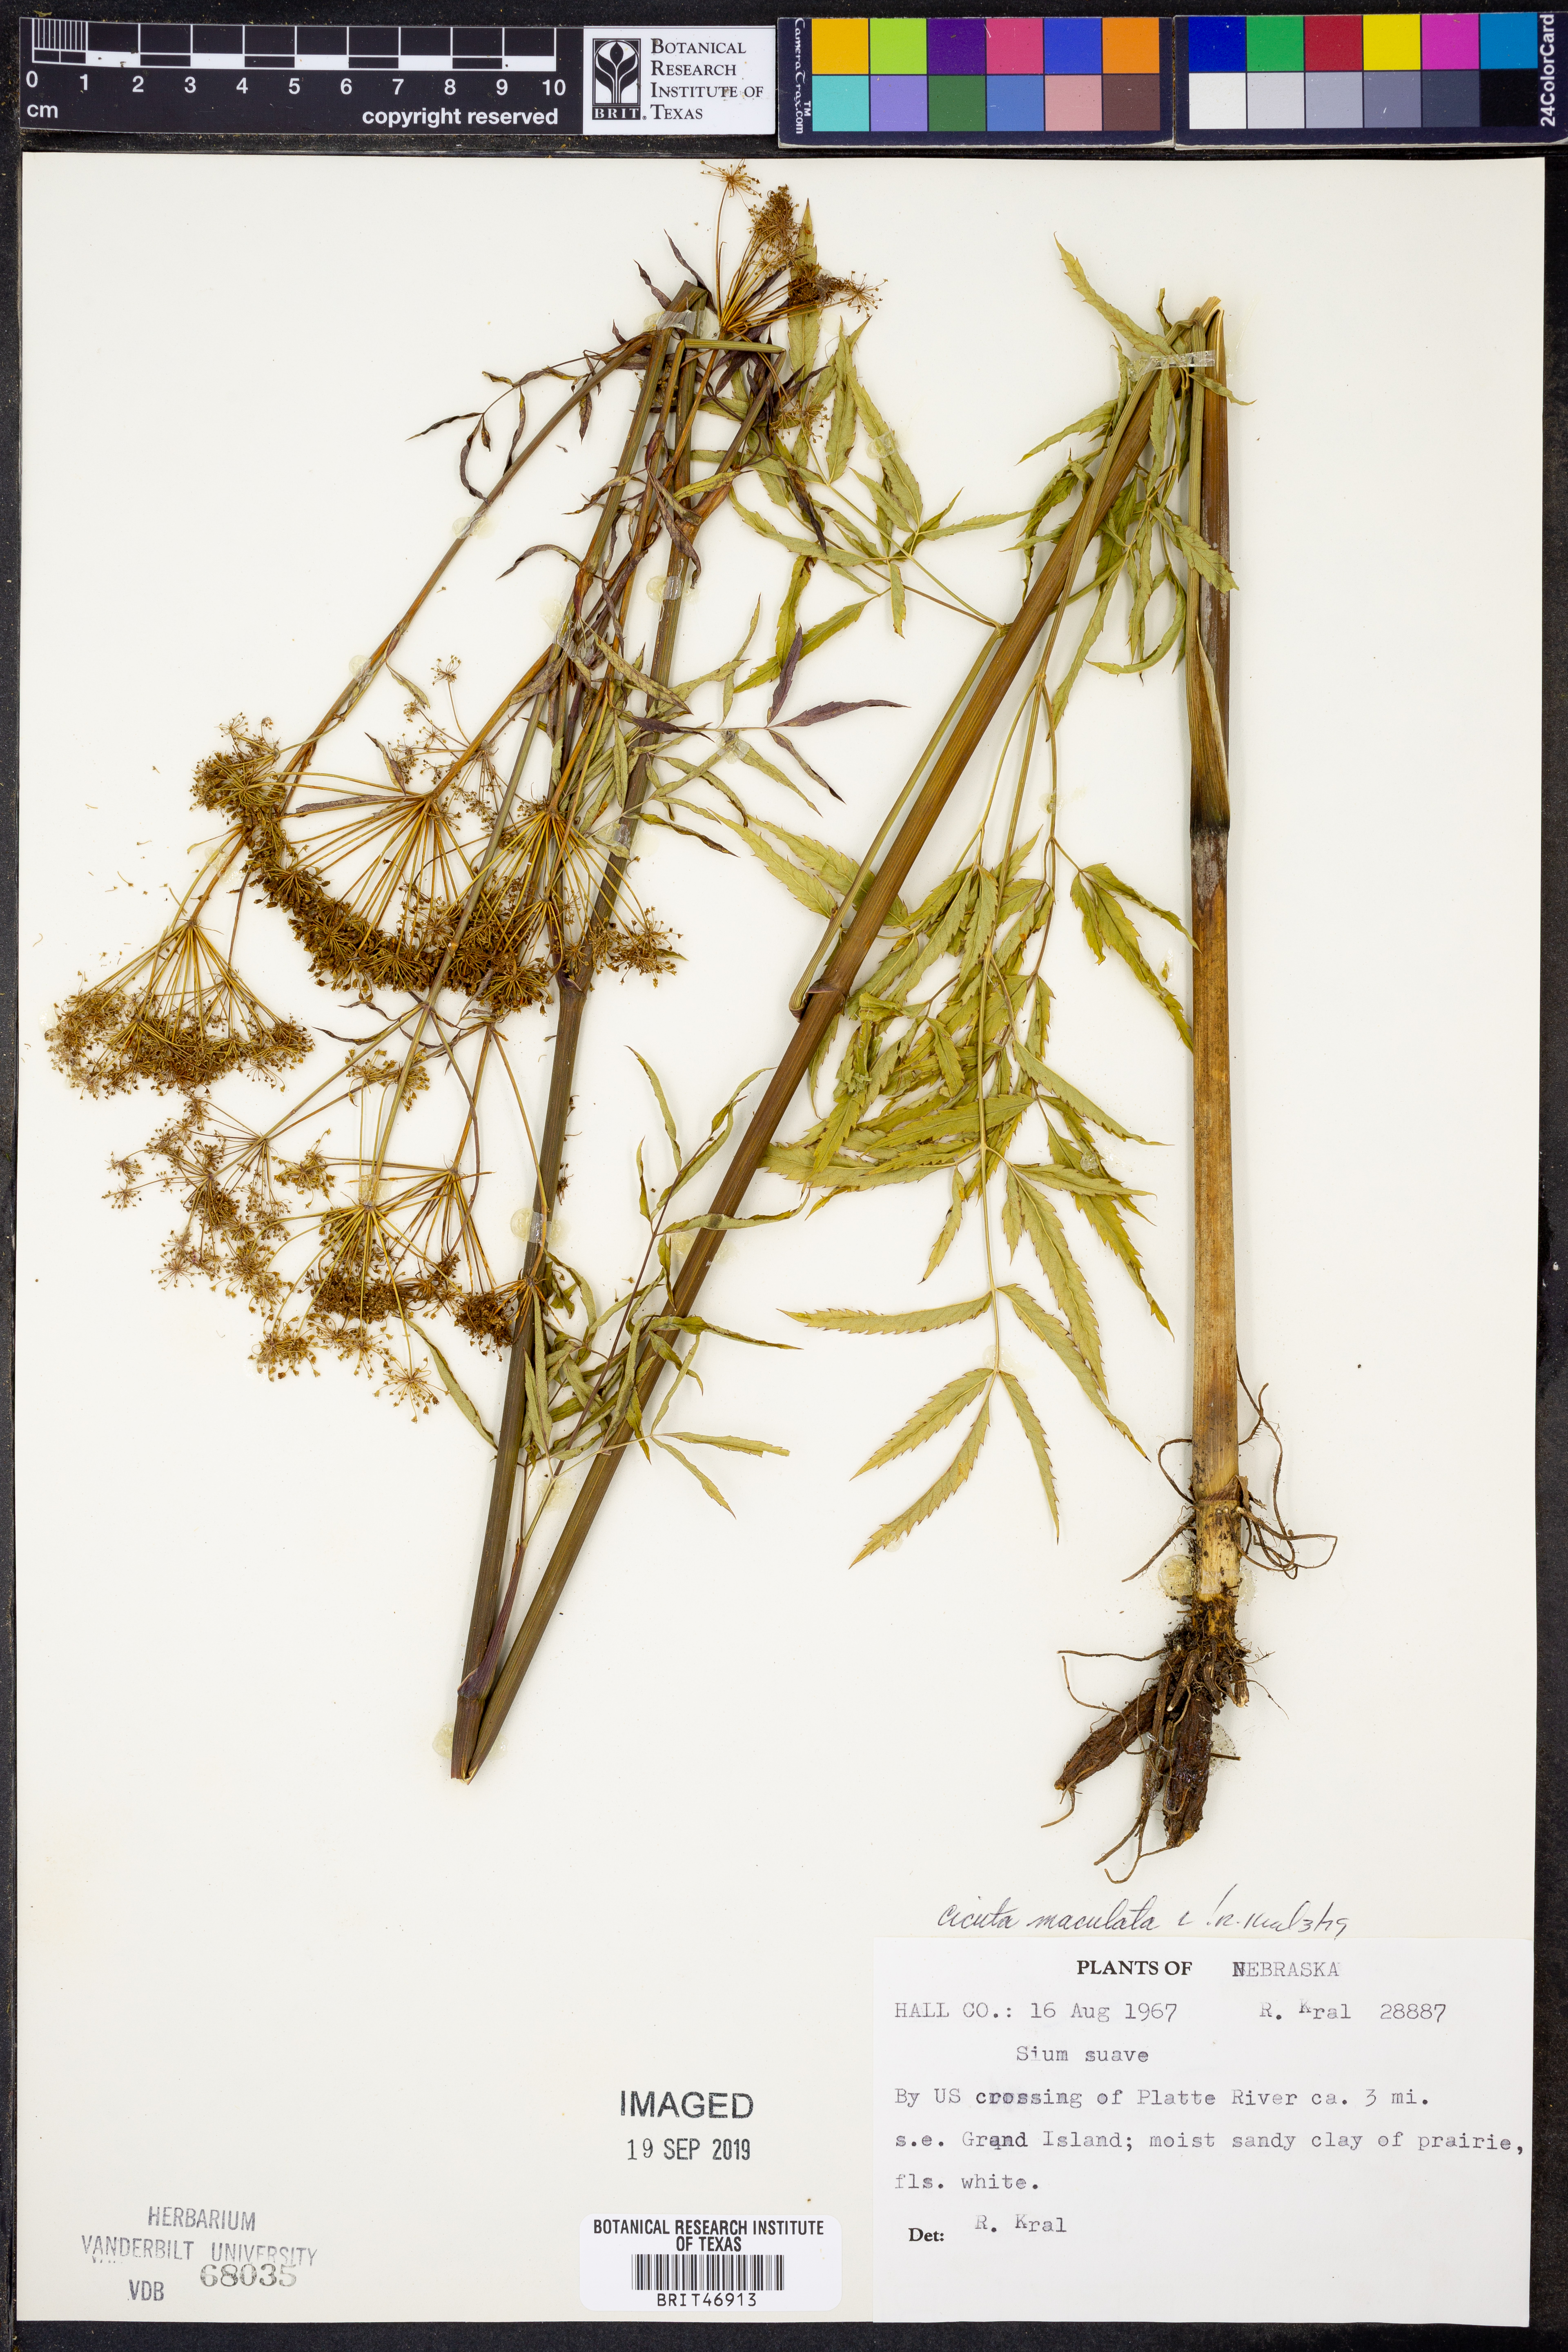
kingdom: Plantae
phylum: Tracheophyta
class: Magnoliopsida
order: Apiales
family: Apiaceae
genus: Cicuta
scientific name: Cicuta maculata
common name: Spotted cowbane
